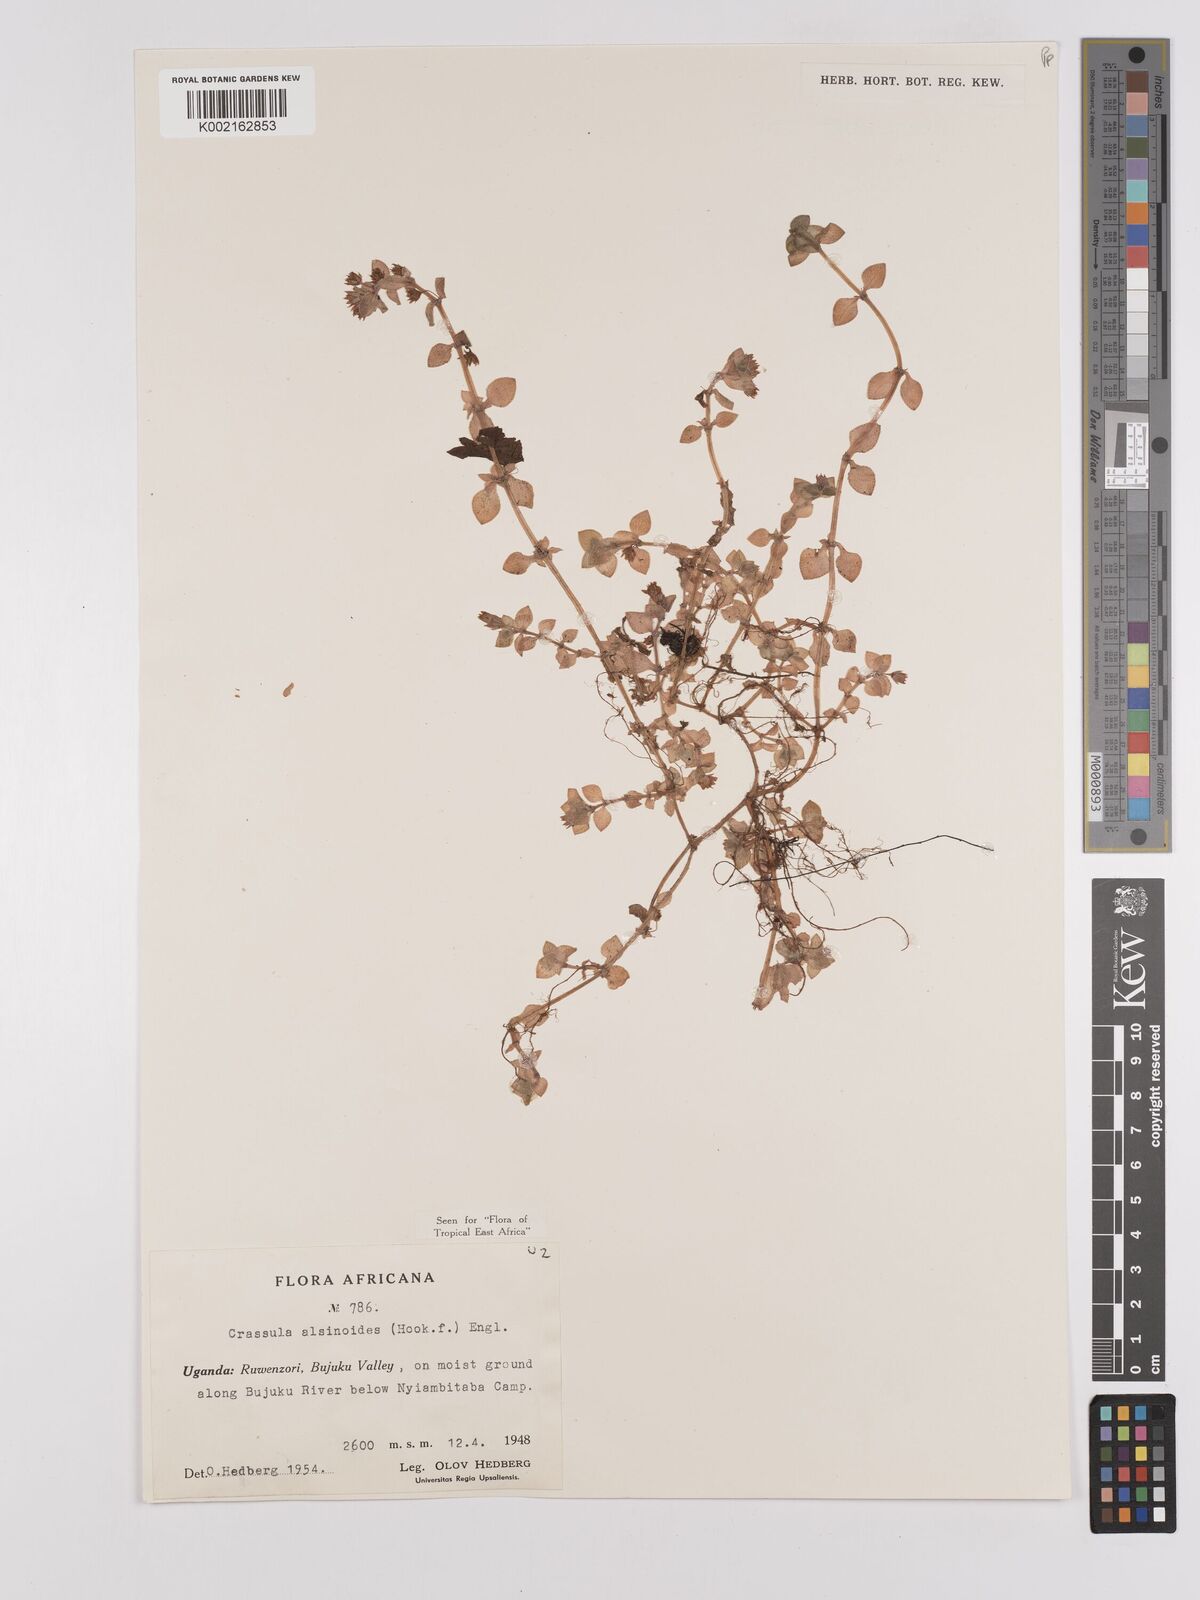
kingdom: Plantae
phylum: Tracheophyta
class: Magnoliopsida
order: Saxifragales
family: Crassulaceae
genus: Crassula
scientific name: Crassula alsinoides
